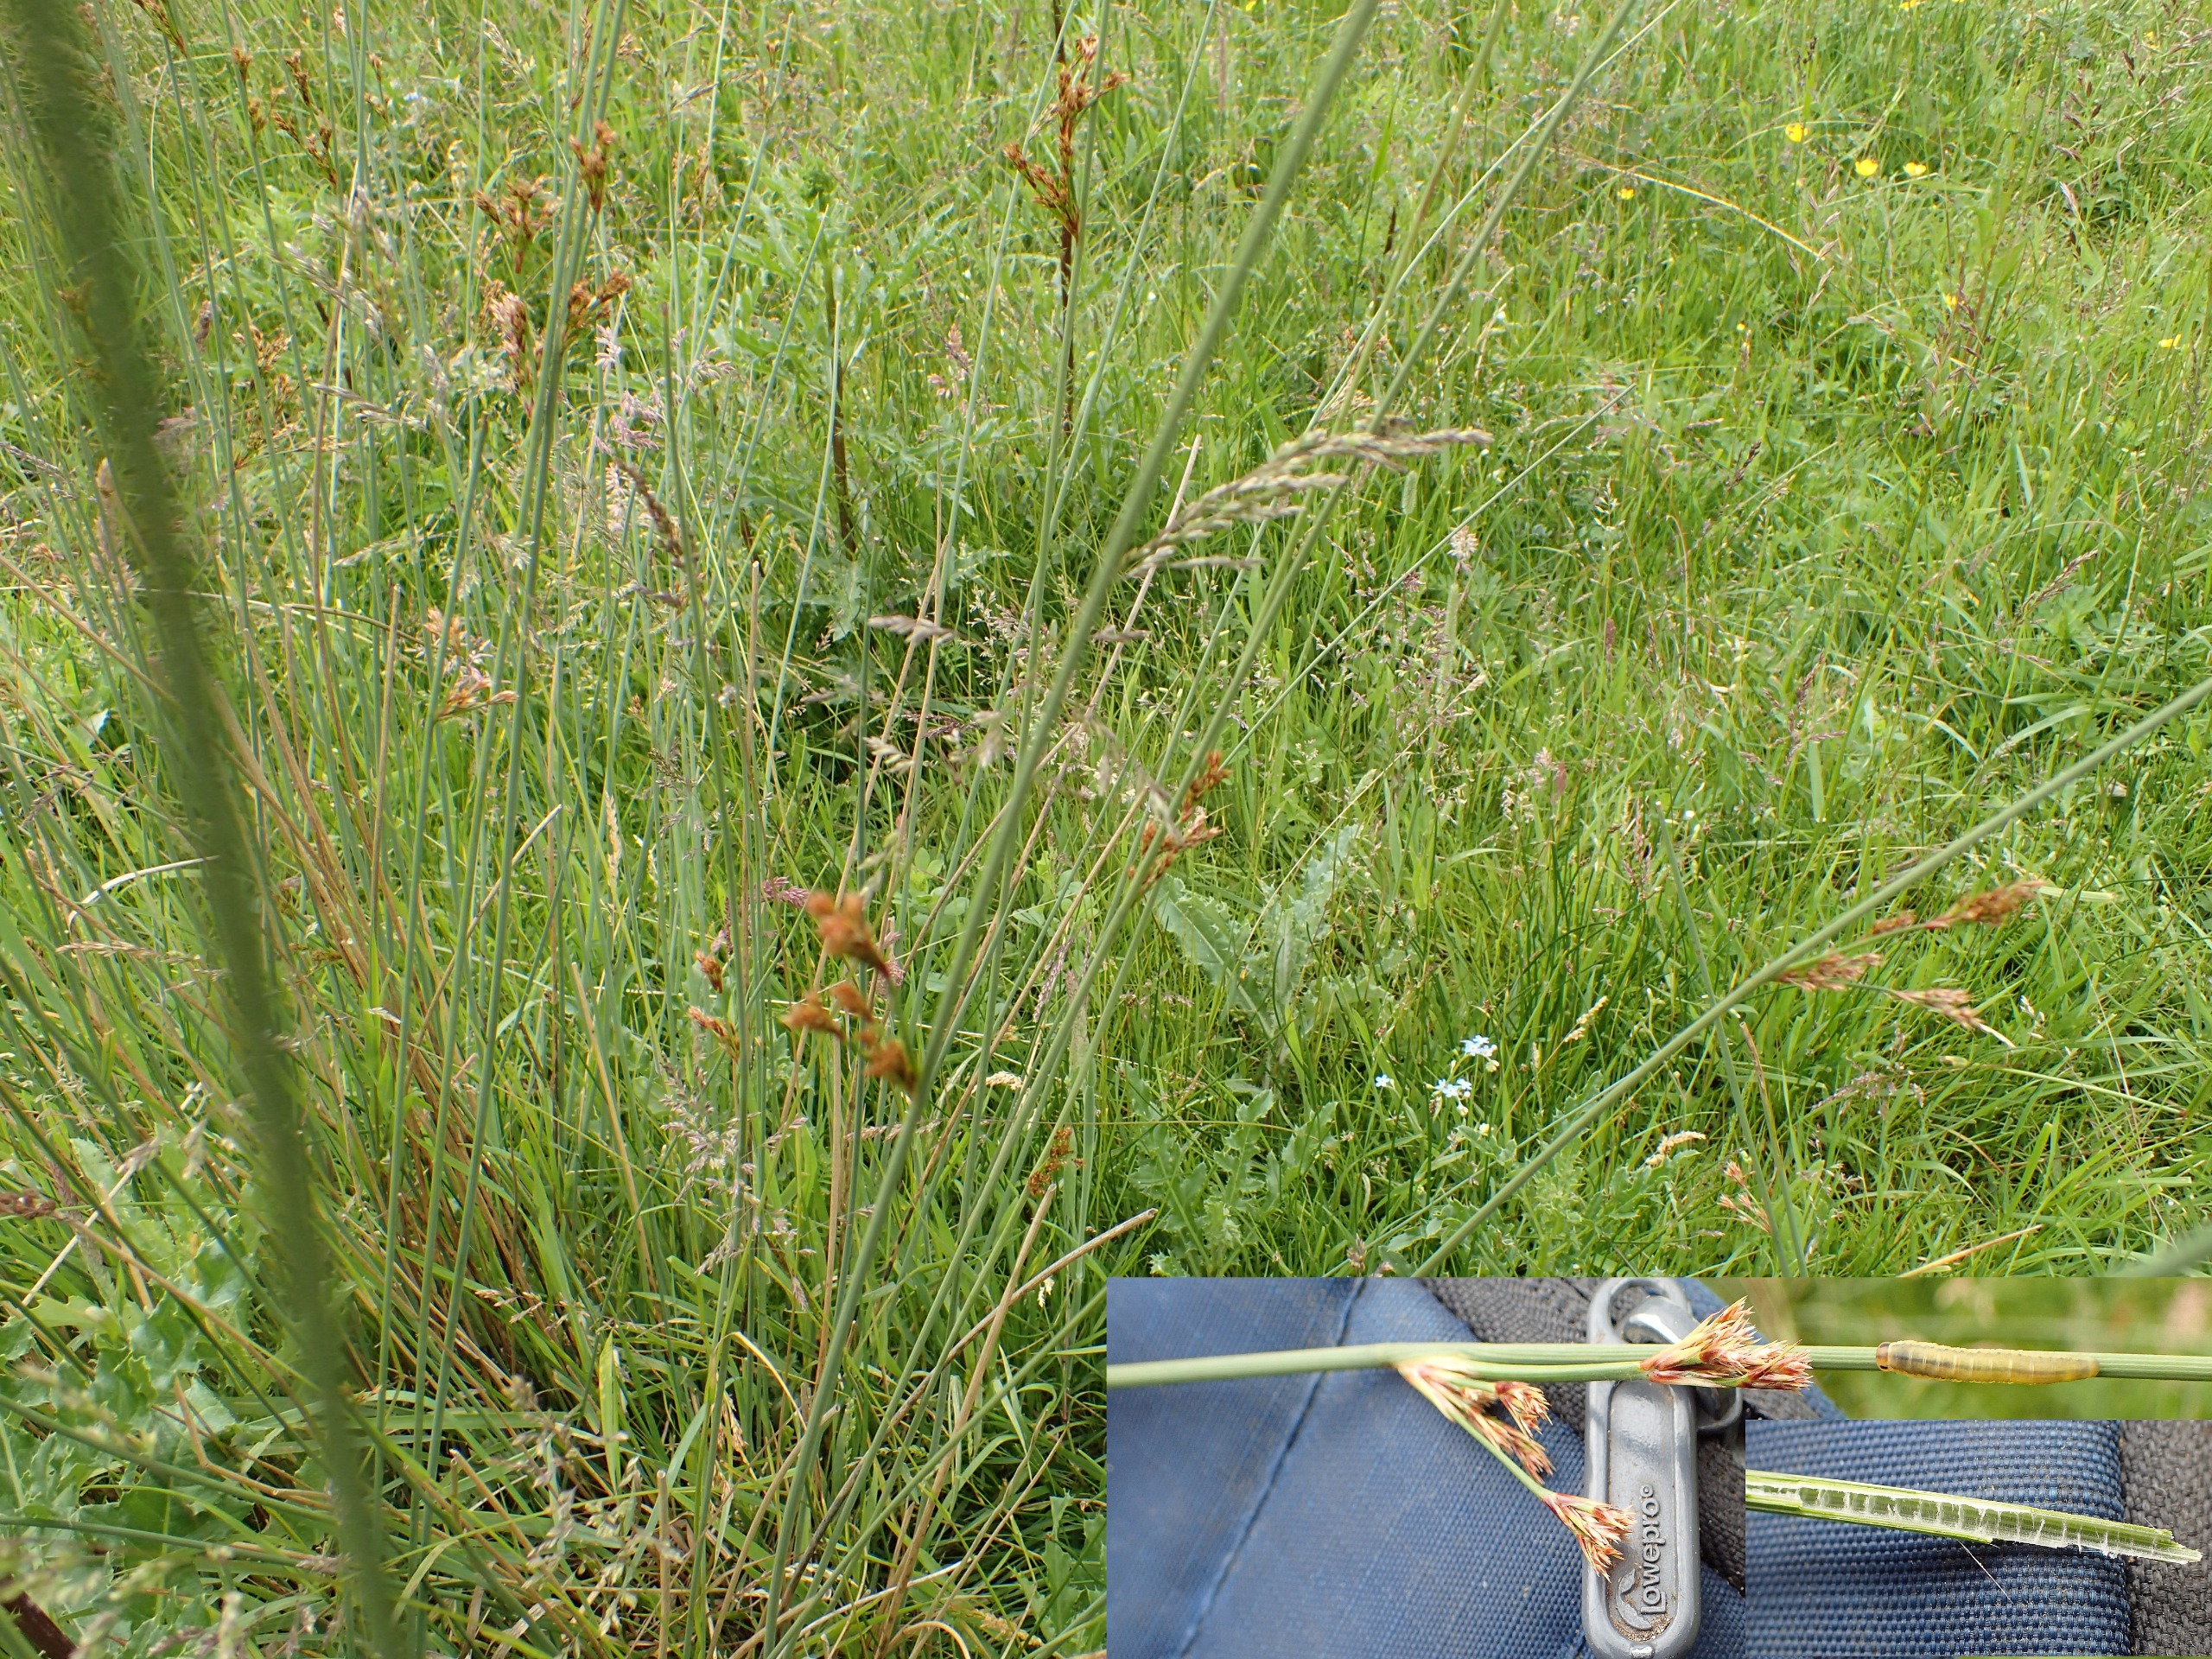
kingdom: Plantae
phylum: Tracheophyta
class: Liliopsida
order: Poales
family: Juncaceae
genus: Juncus
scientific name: Juncus inflexus
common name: Blågrå siv
